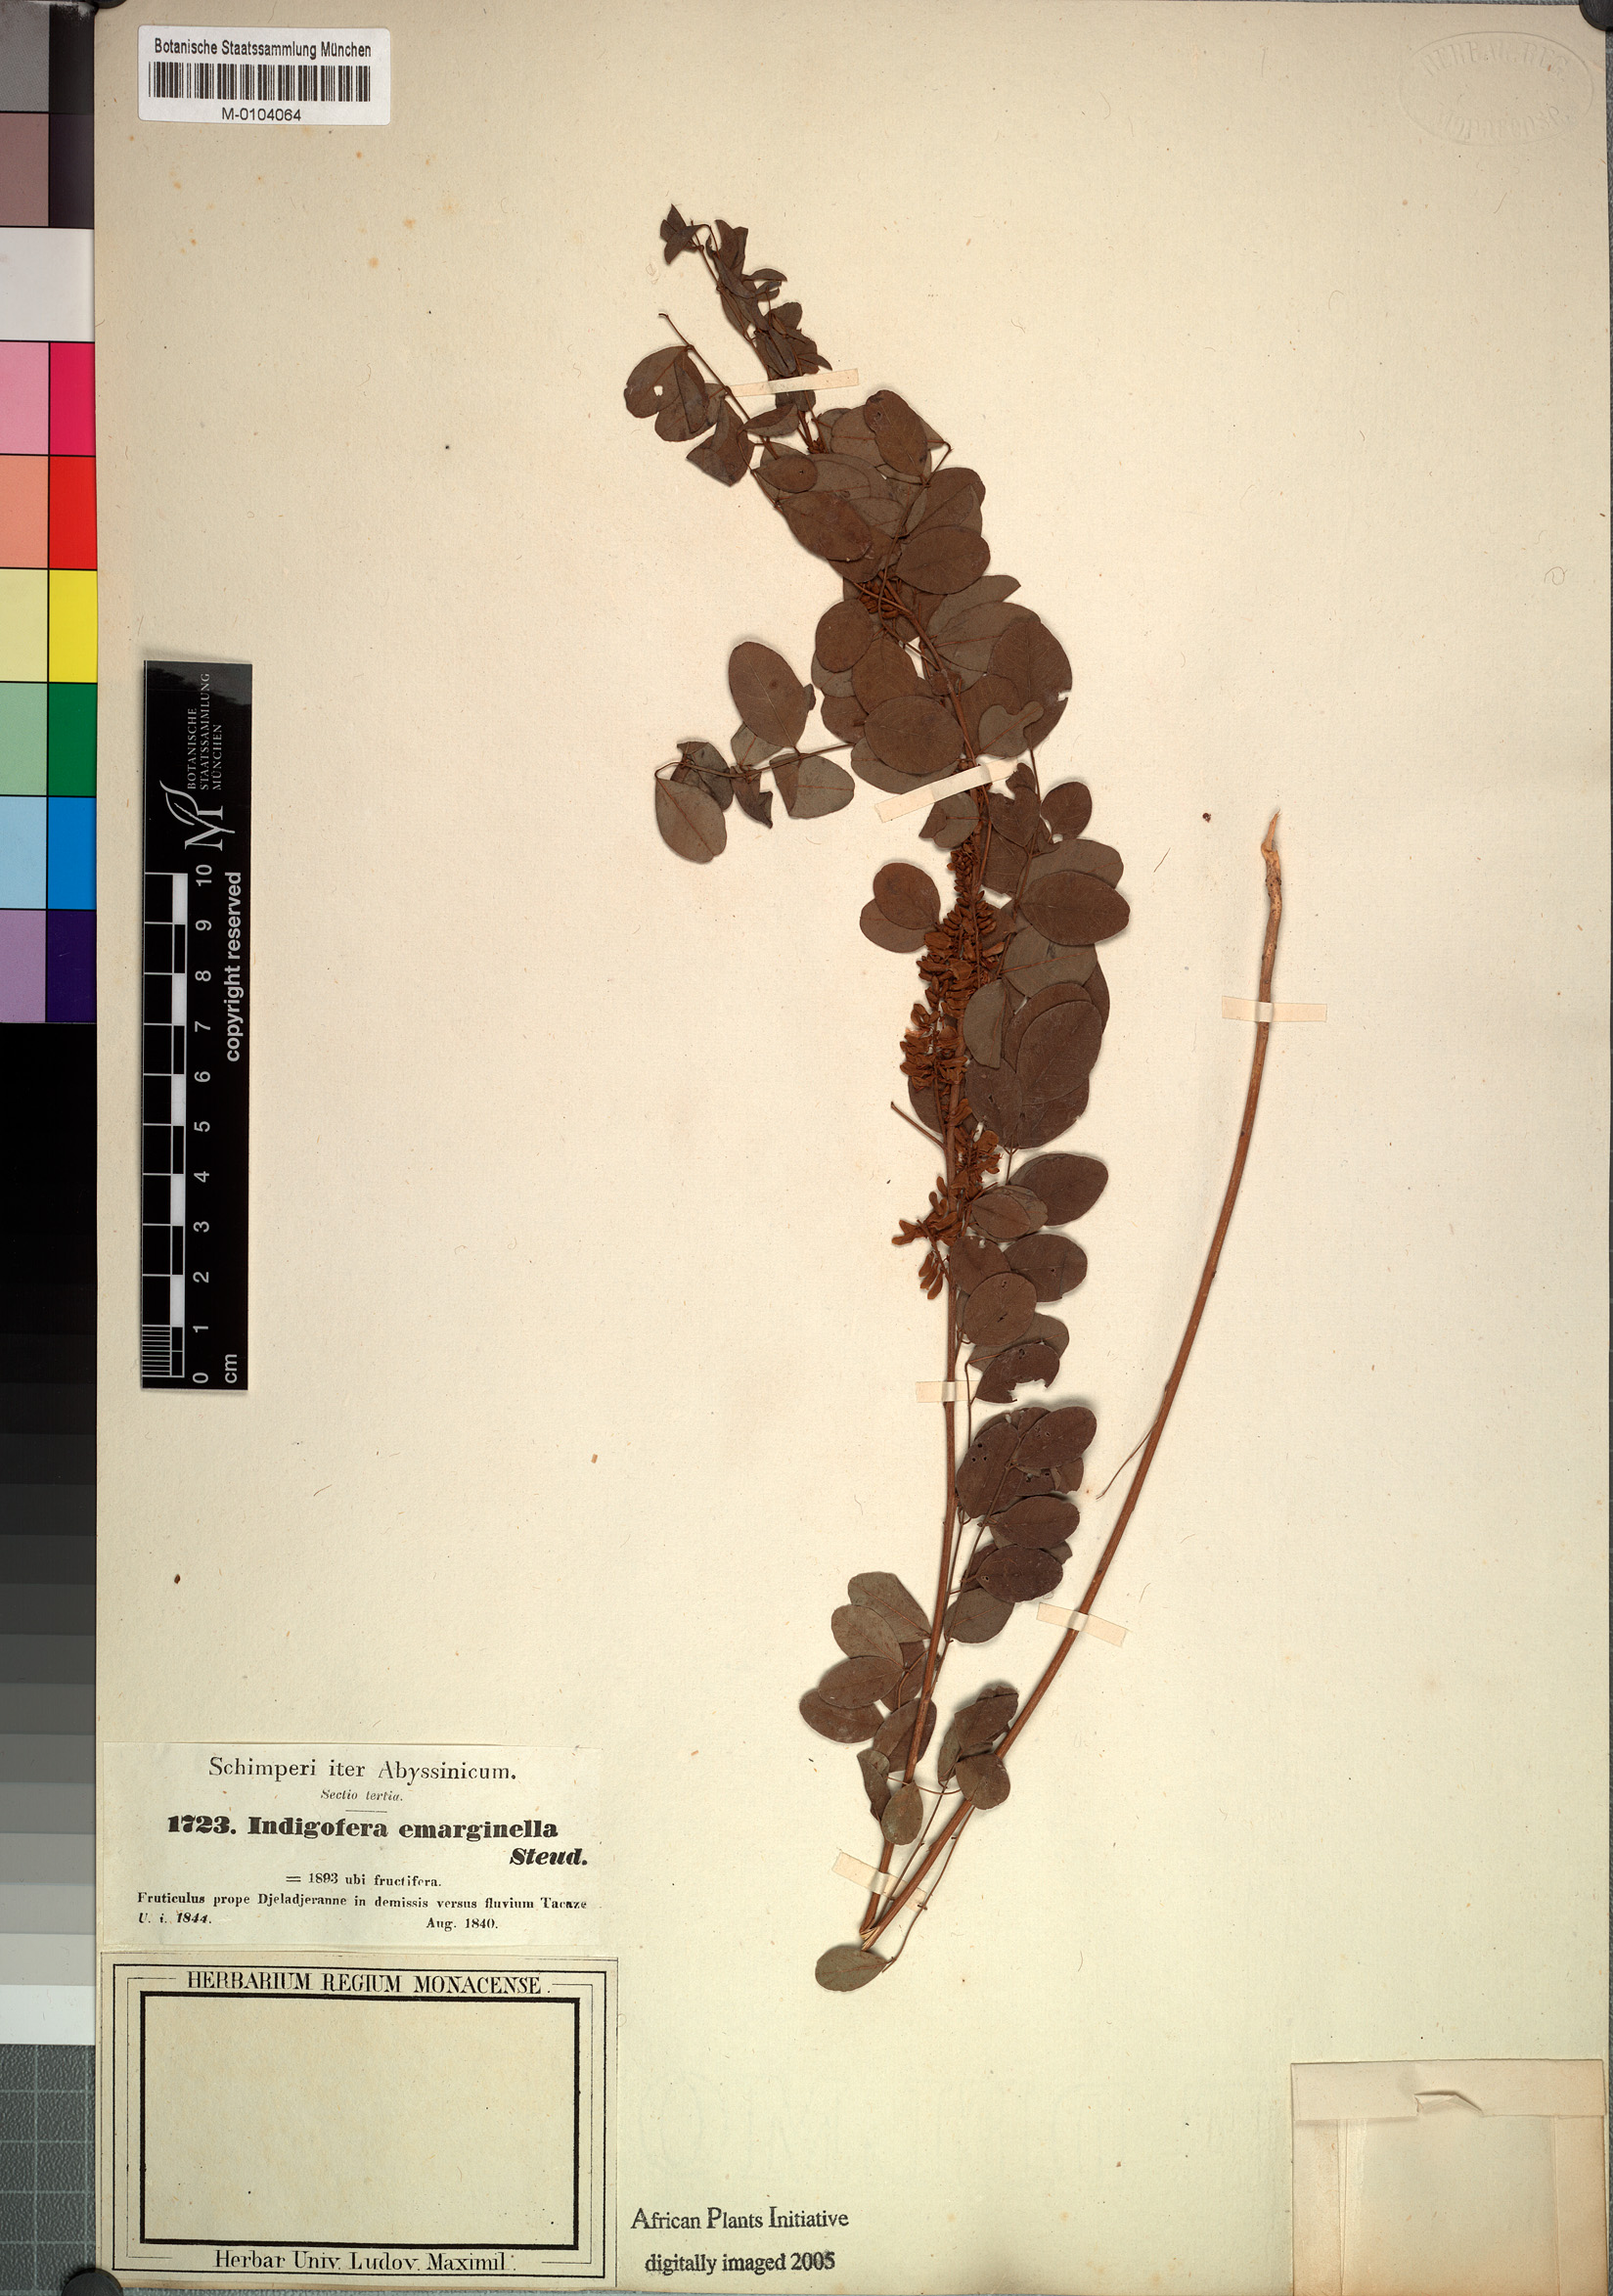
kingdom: Plantae
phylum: Tracheophyta
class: Magnoliopsida
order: Fabales
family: Fabaceae
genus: Indigofera
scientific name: Indigofera emarginella
